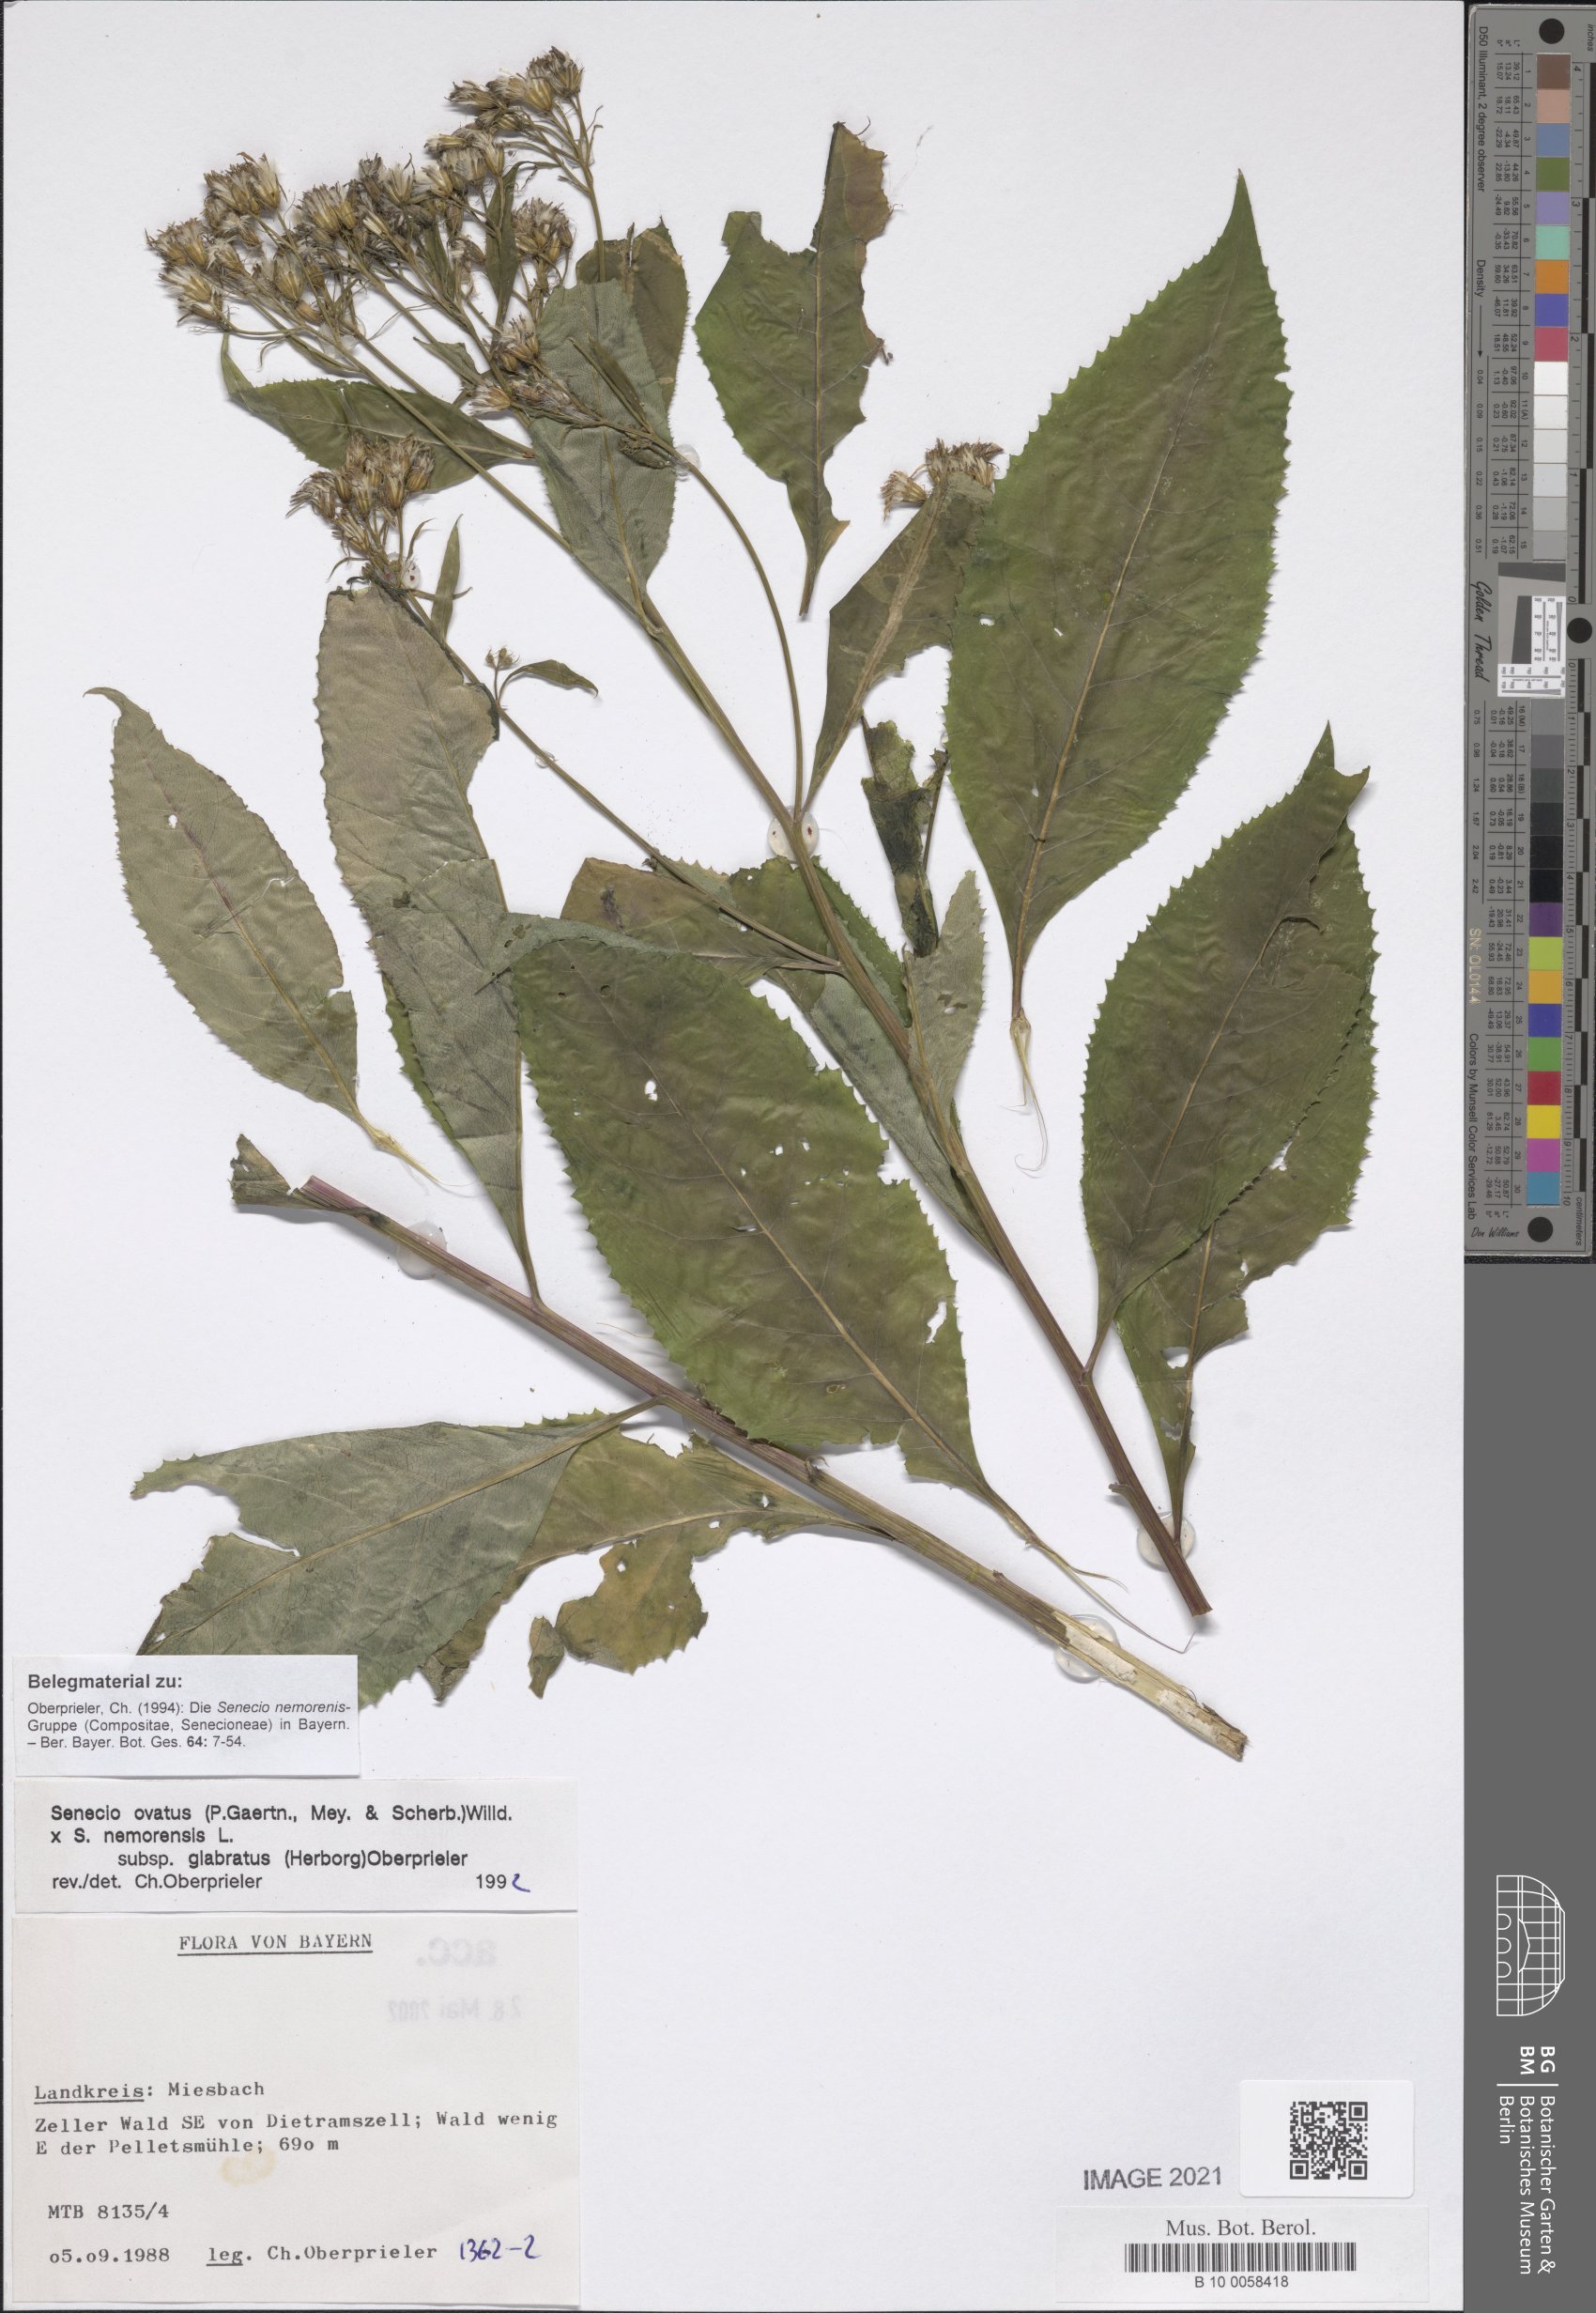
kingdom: Plantae
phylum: Tracheophyta
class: Magnoliopsida
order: Asterales
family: Asteraceae
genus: Senecio
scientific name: Senecio ovatus
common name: Wood ragwort
